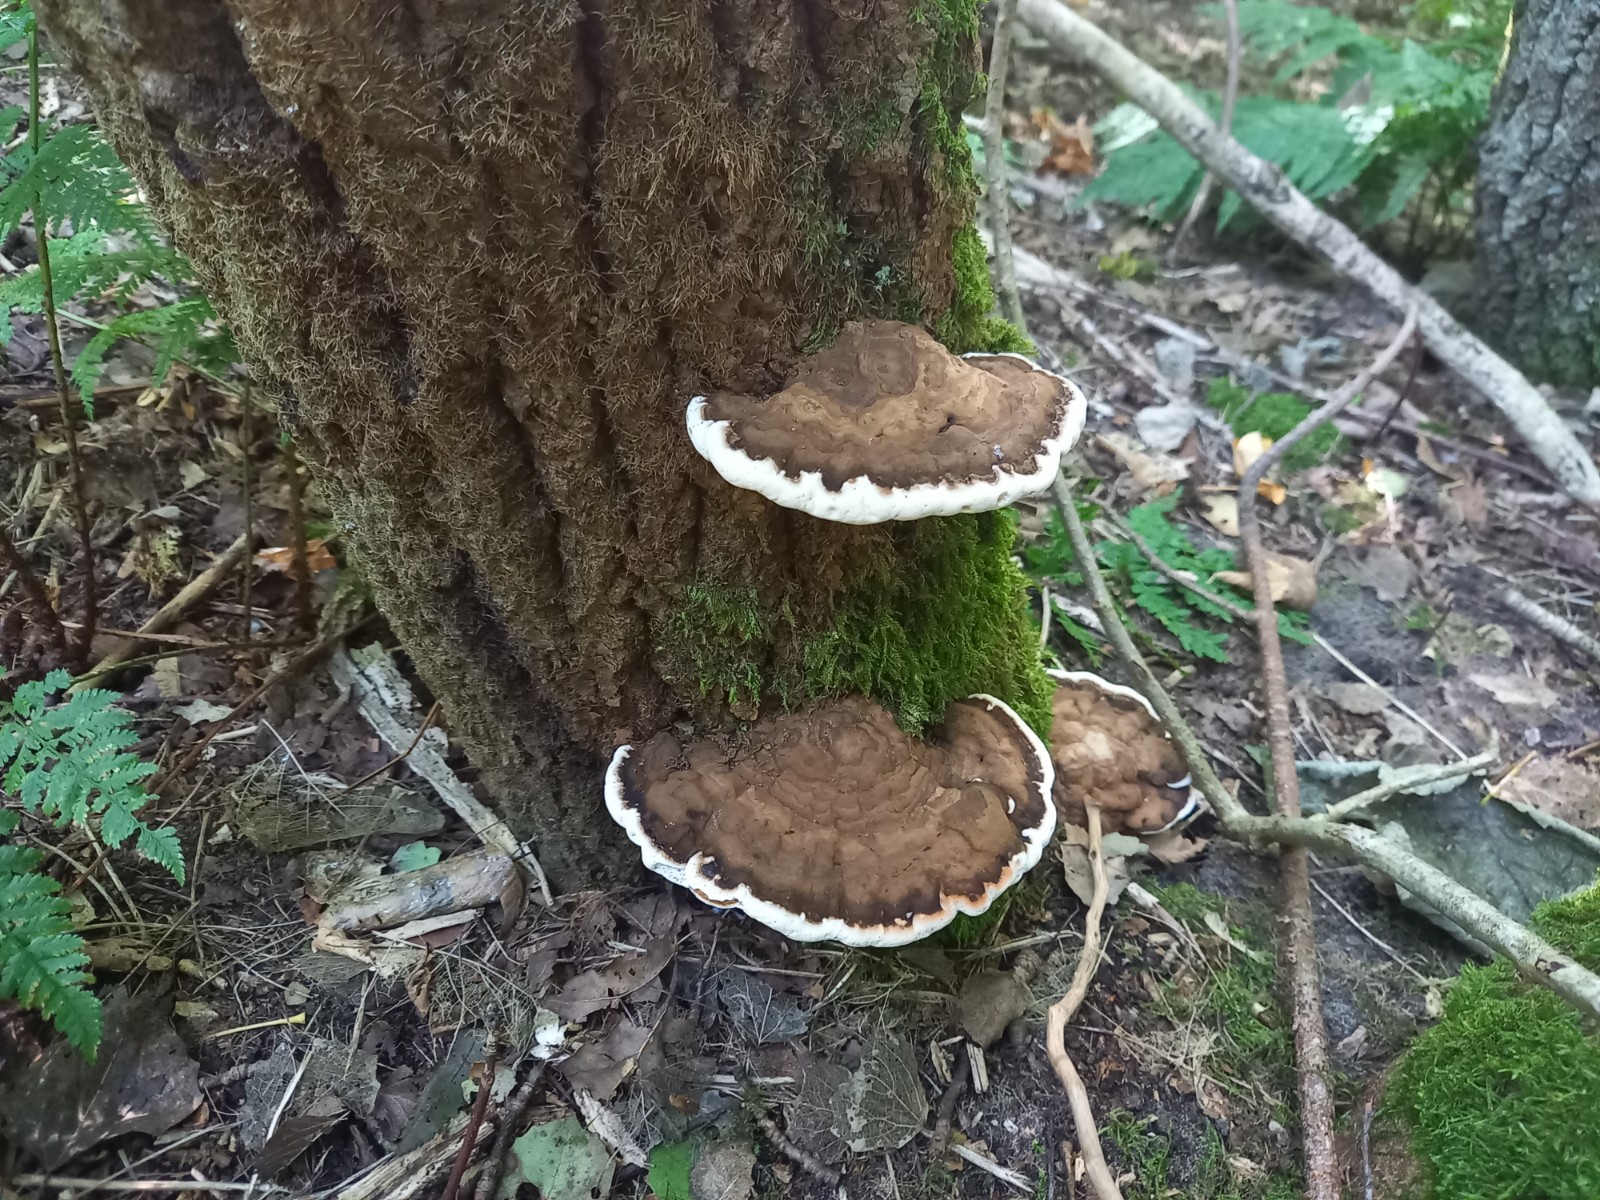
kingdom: Fungi
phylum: Basidiomycota
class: Agaricomycetes
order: Polyporales
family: Polyporaceae
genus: Ganoderma
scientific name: Ganoderma applanatum
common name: flad lakporesvamp
